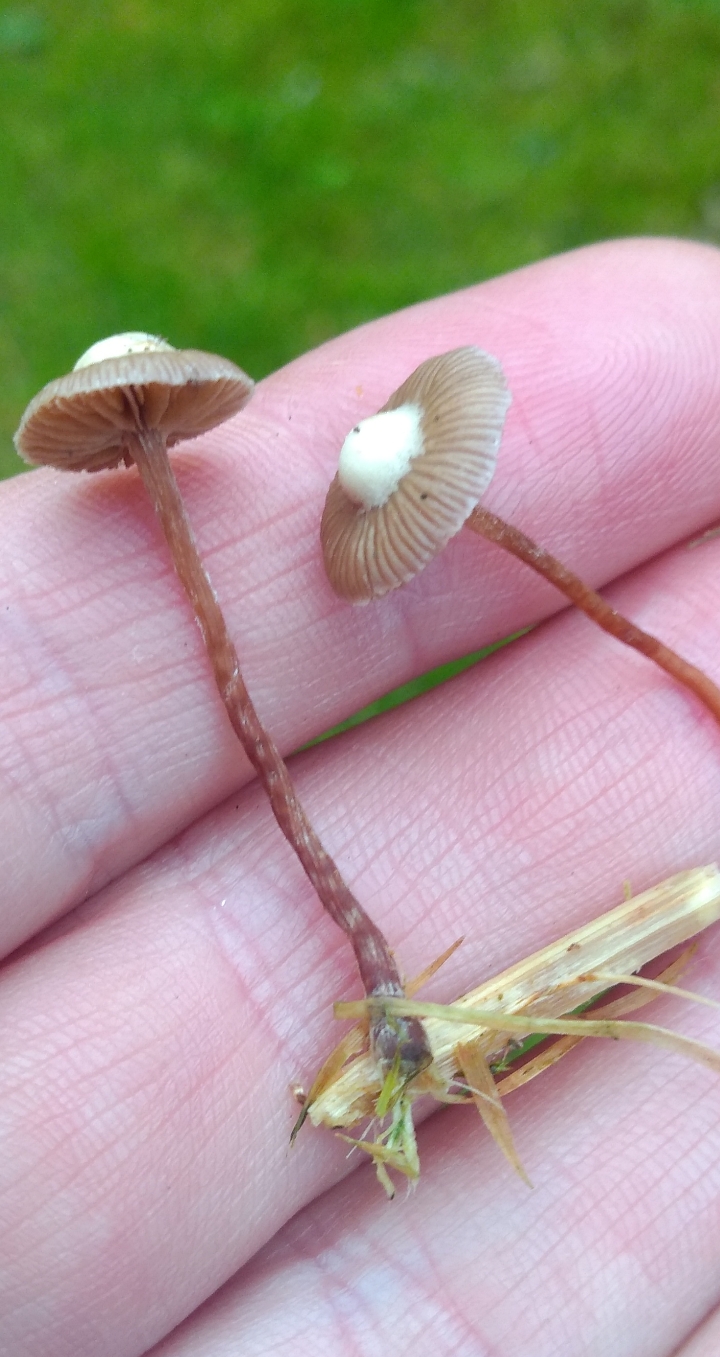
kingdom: Fungi
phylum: Basidiomycota
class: Agaricomycetes
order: Agaricales
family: Strophariaceae
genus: Deconica
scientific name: Deconica
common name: stråhat
